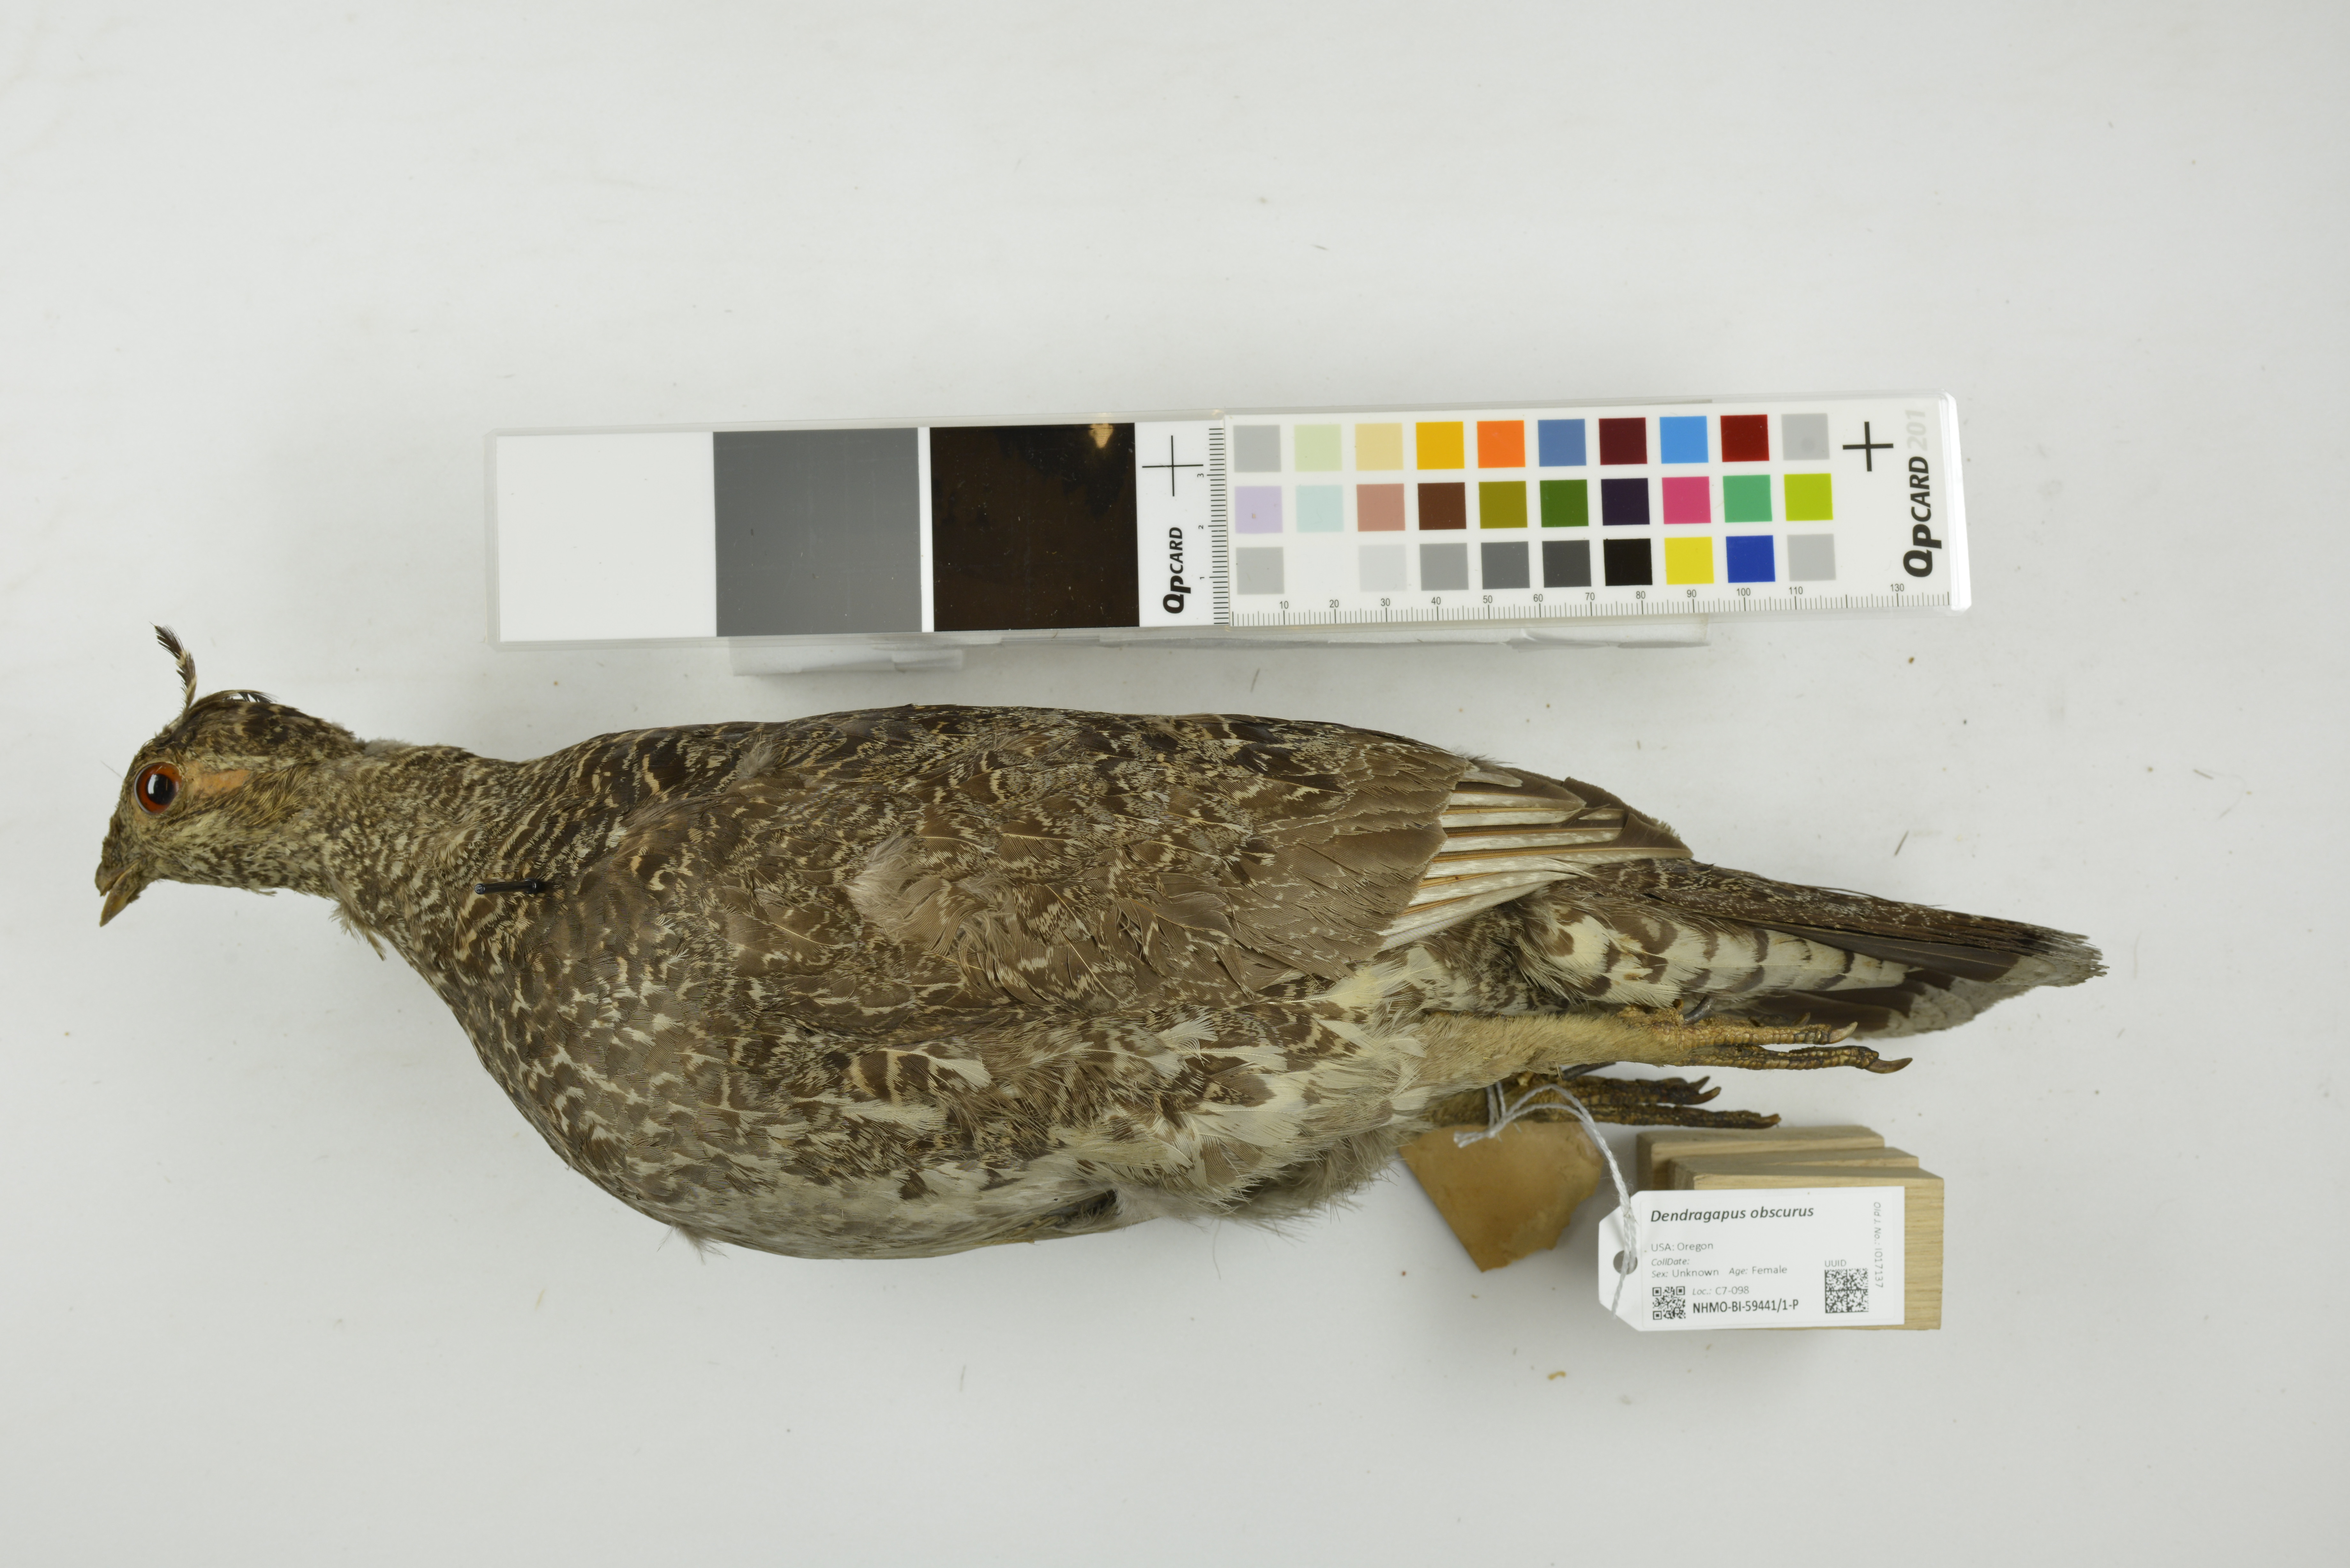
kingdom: Animalia
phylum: Chordata
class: Aves
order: Galliformes
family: Phasianidae
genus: Dendragapus
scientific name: Dendragapus obscurus
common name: Dusky grouse
